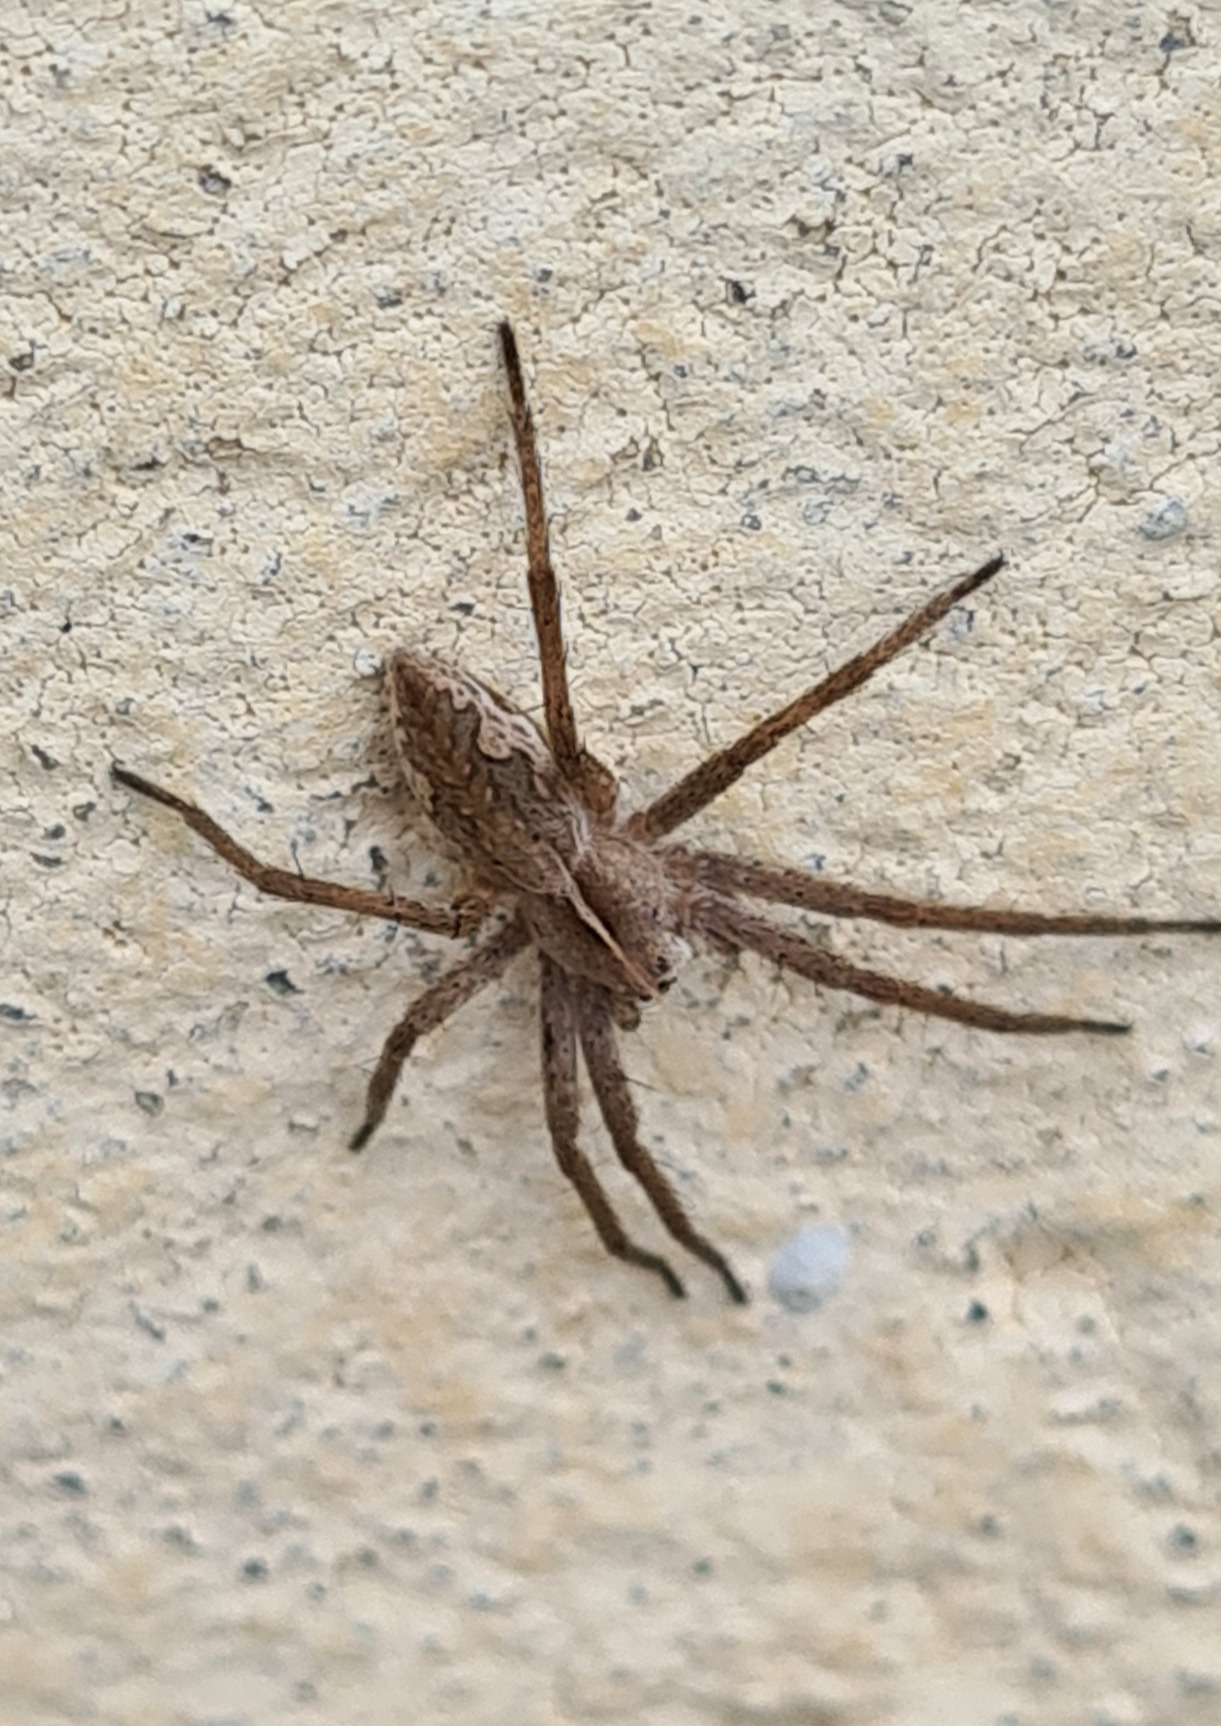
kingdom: Animalia
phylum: Arthropoda
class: Arachnida
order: Araneae
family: Pisauridae
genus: Pisaura
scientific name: Pisaura mirabilis
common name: Almindelig rovedderkop
